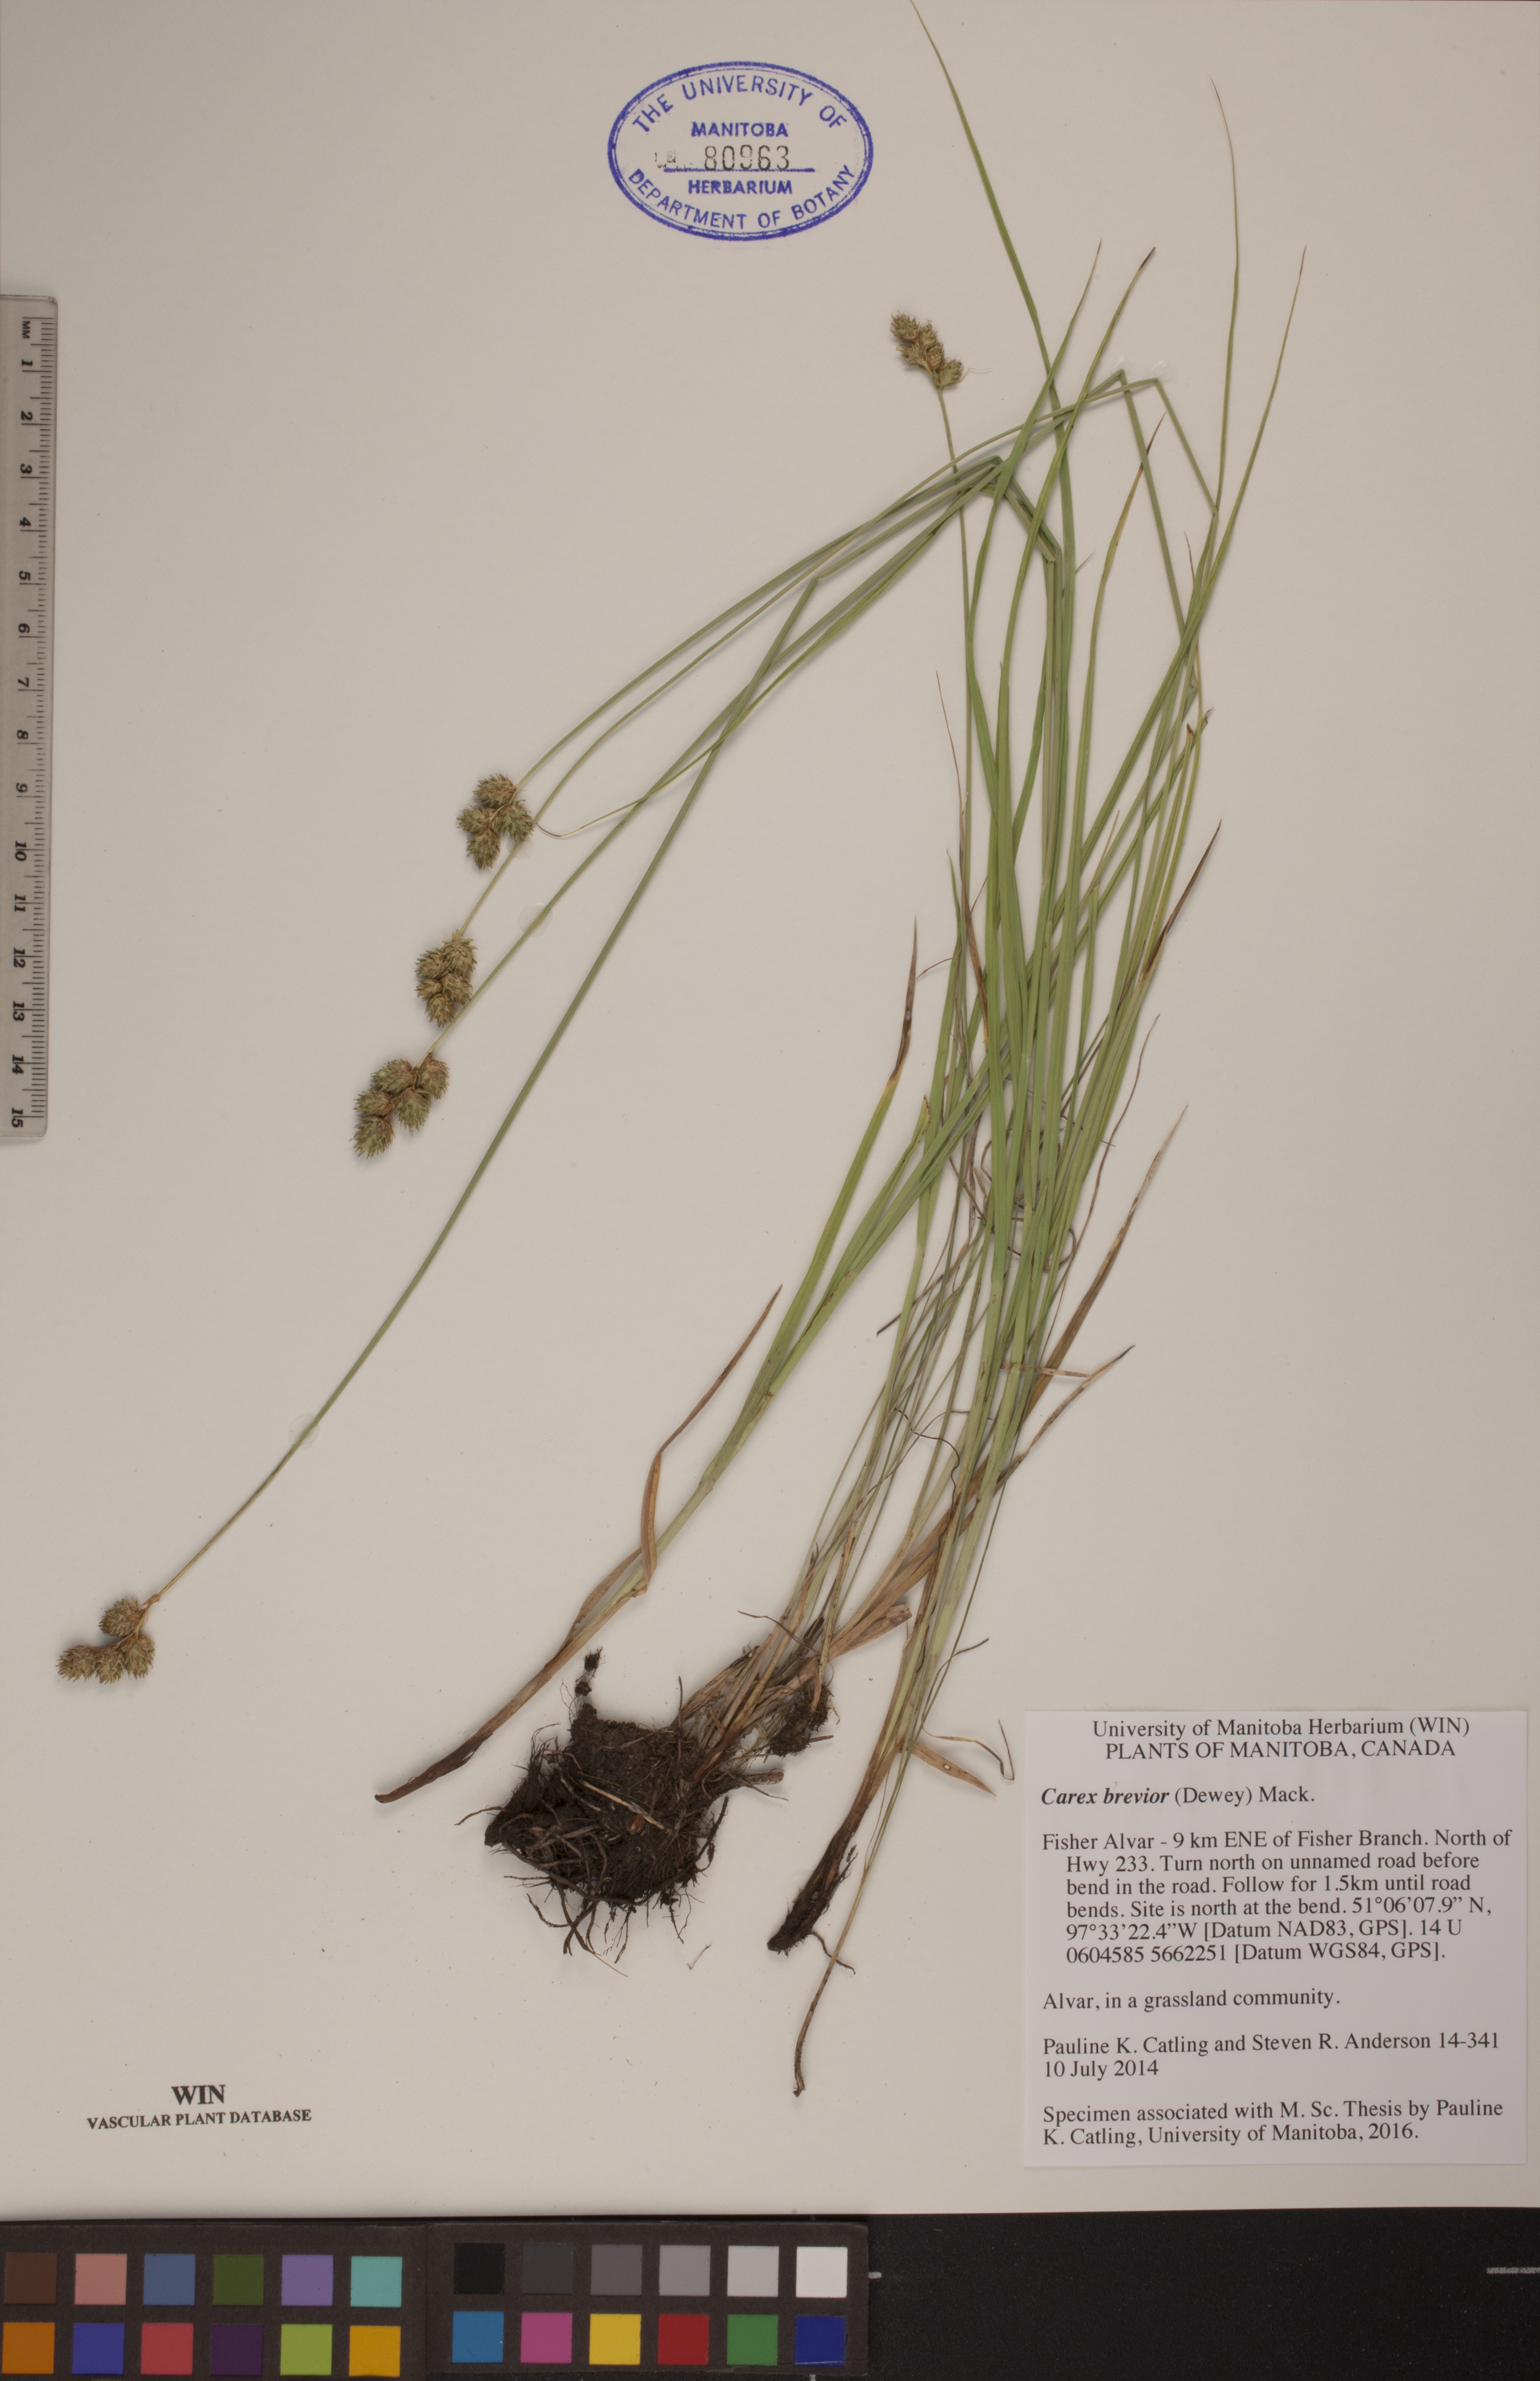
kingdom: Plantae
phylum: Tracheophyta
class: Liliopsida
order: Poales
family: Cyperaceae
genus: Carex
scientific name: Carex brevior
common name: Brevior sedge
